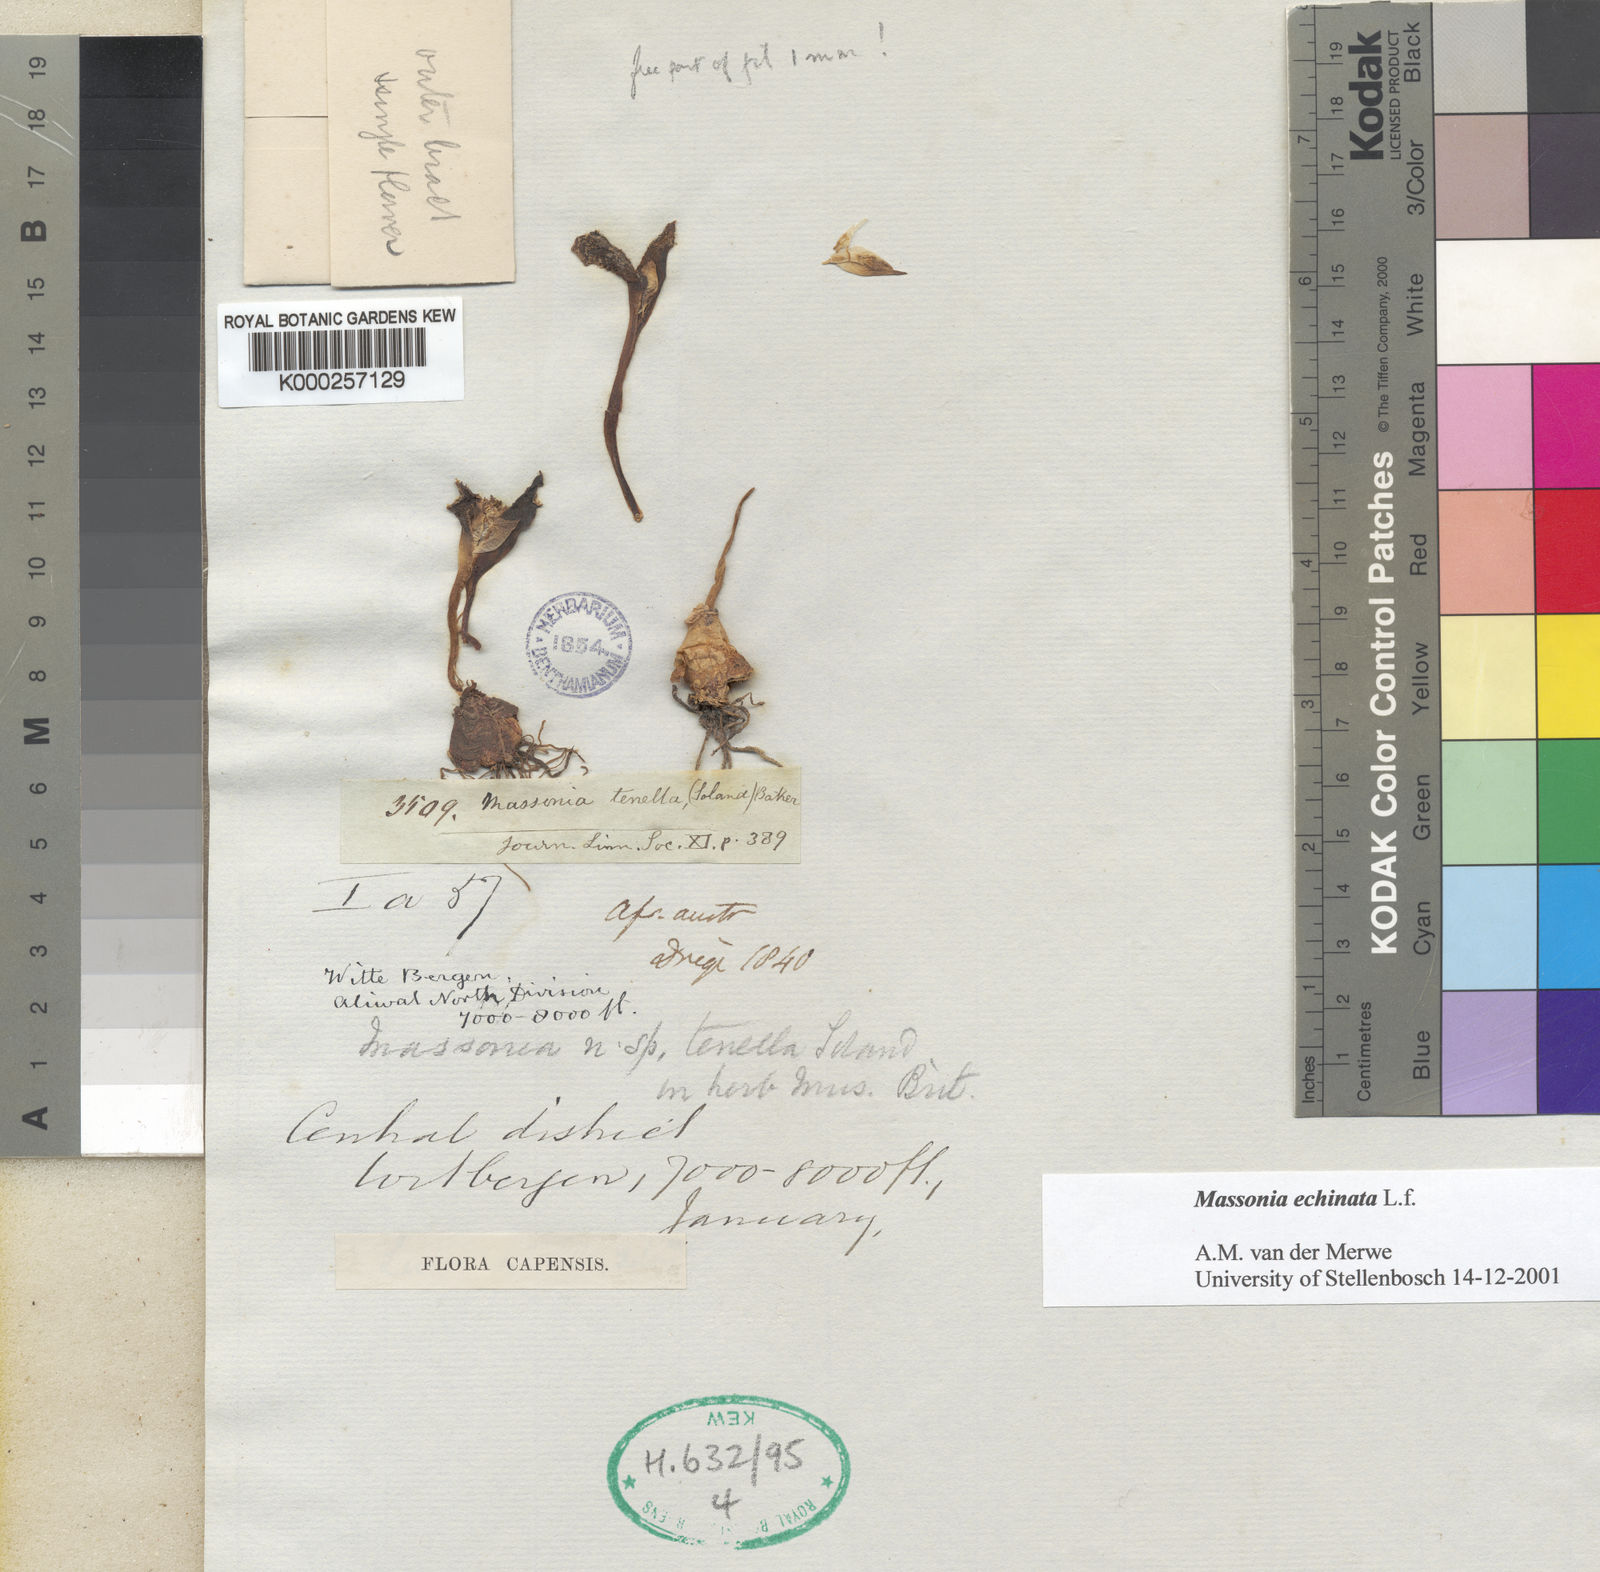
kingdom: Plantae
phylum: Tracheophyta
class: Liliopsida
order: Asparagales
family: Asparagaceae
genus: Massonia
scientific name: Massonia echinata
